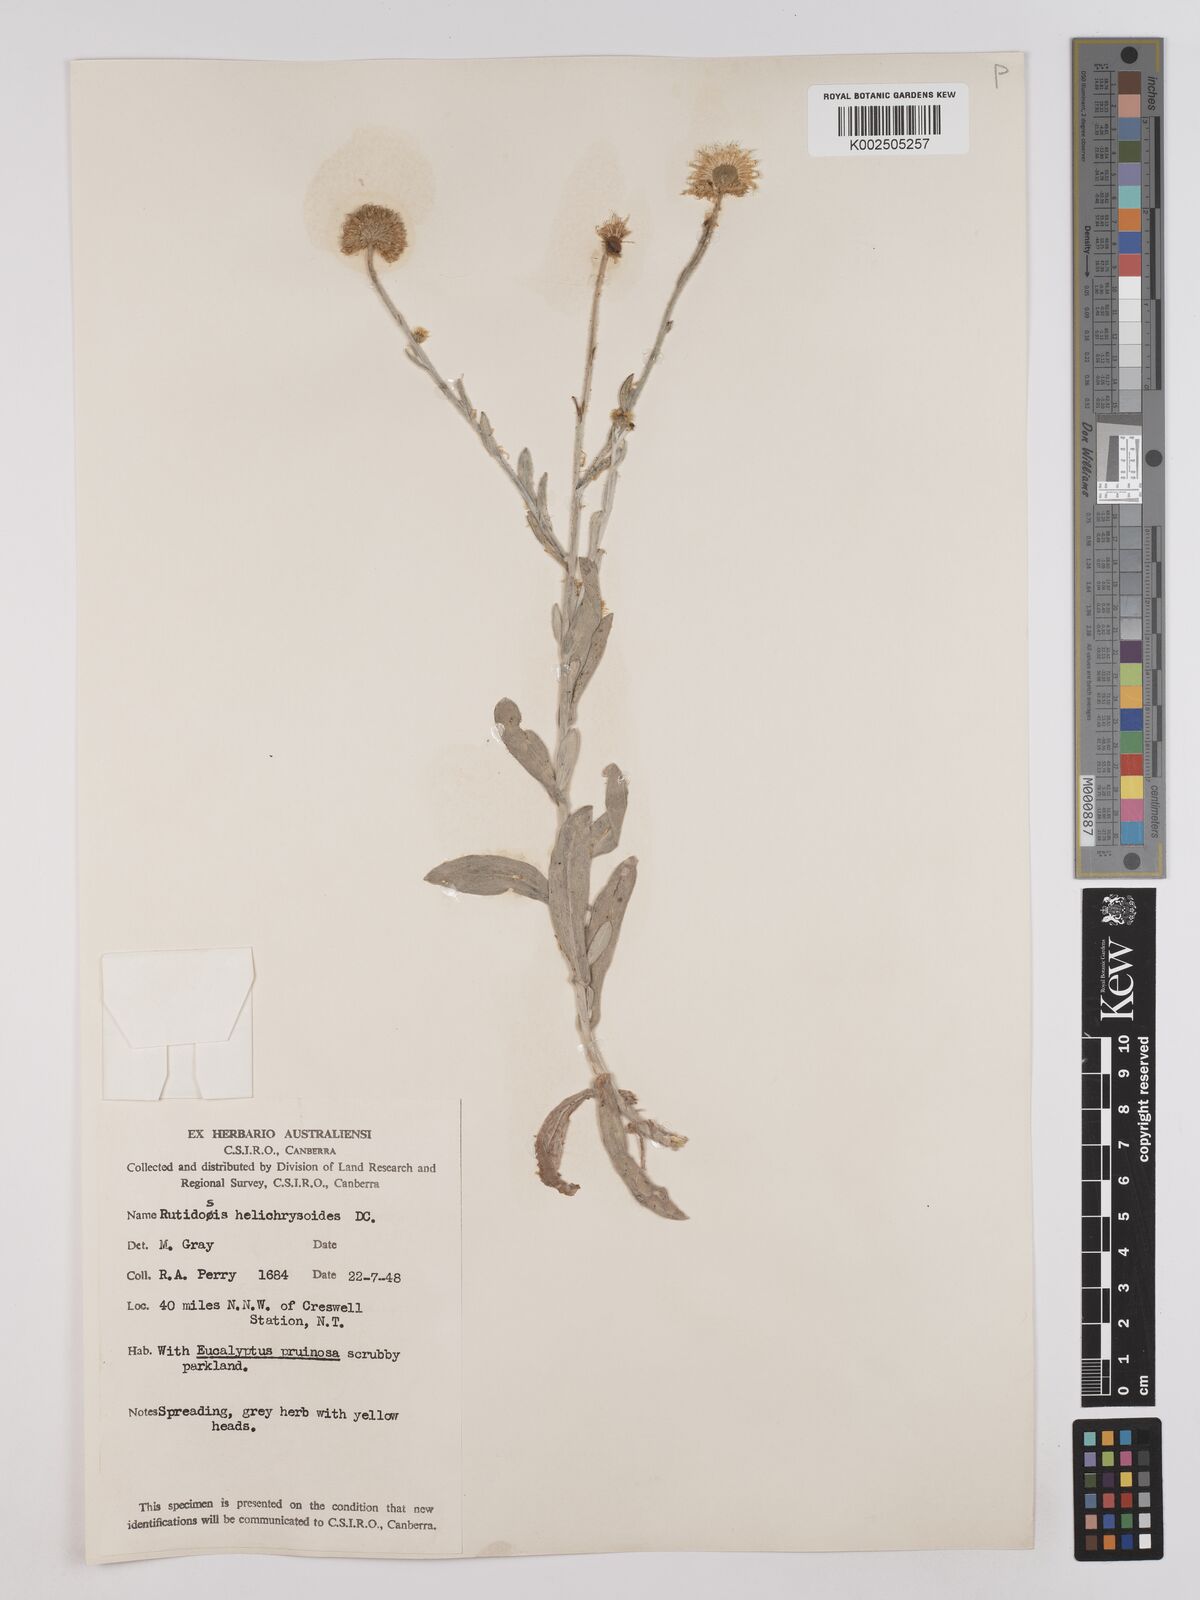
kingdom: Plantae
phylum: Tracheophyta
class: Magnoliopsida
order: Asterales
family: Asteraceae
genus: Rutidosis
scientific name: Rutidosis helichrysoides
